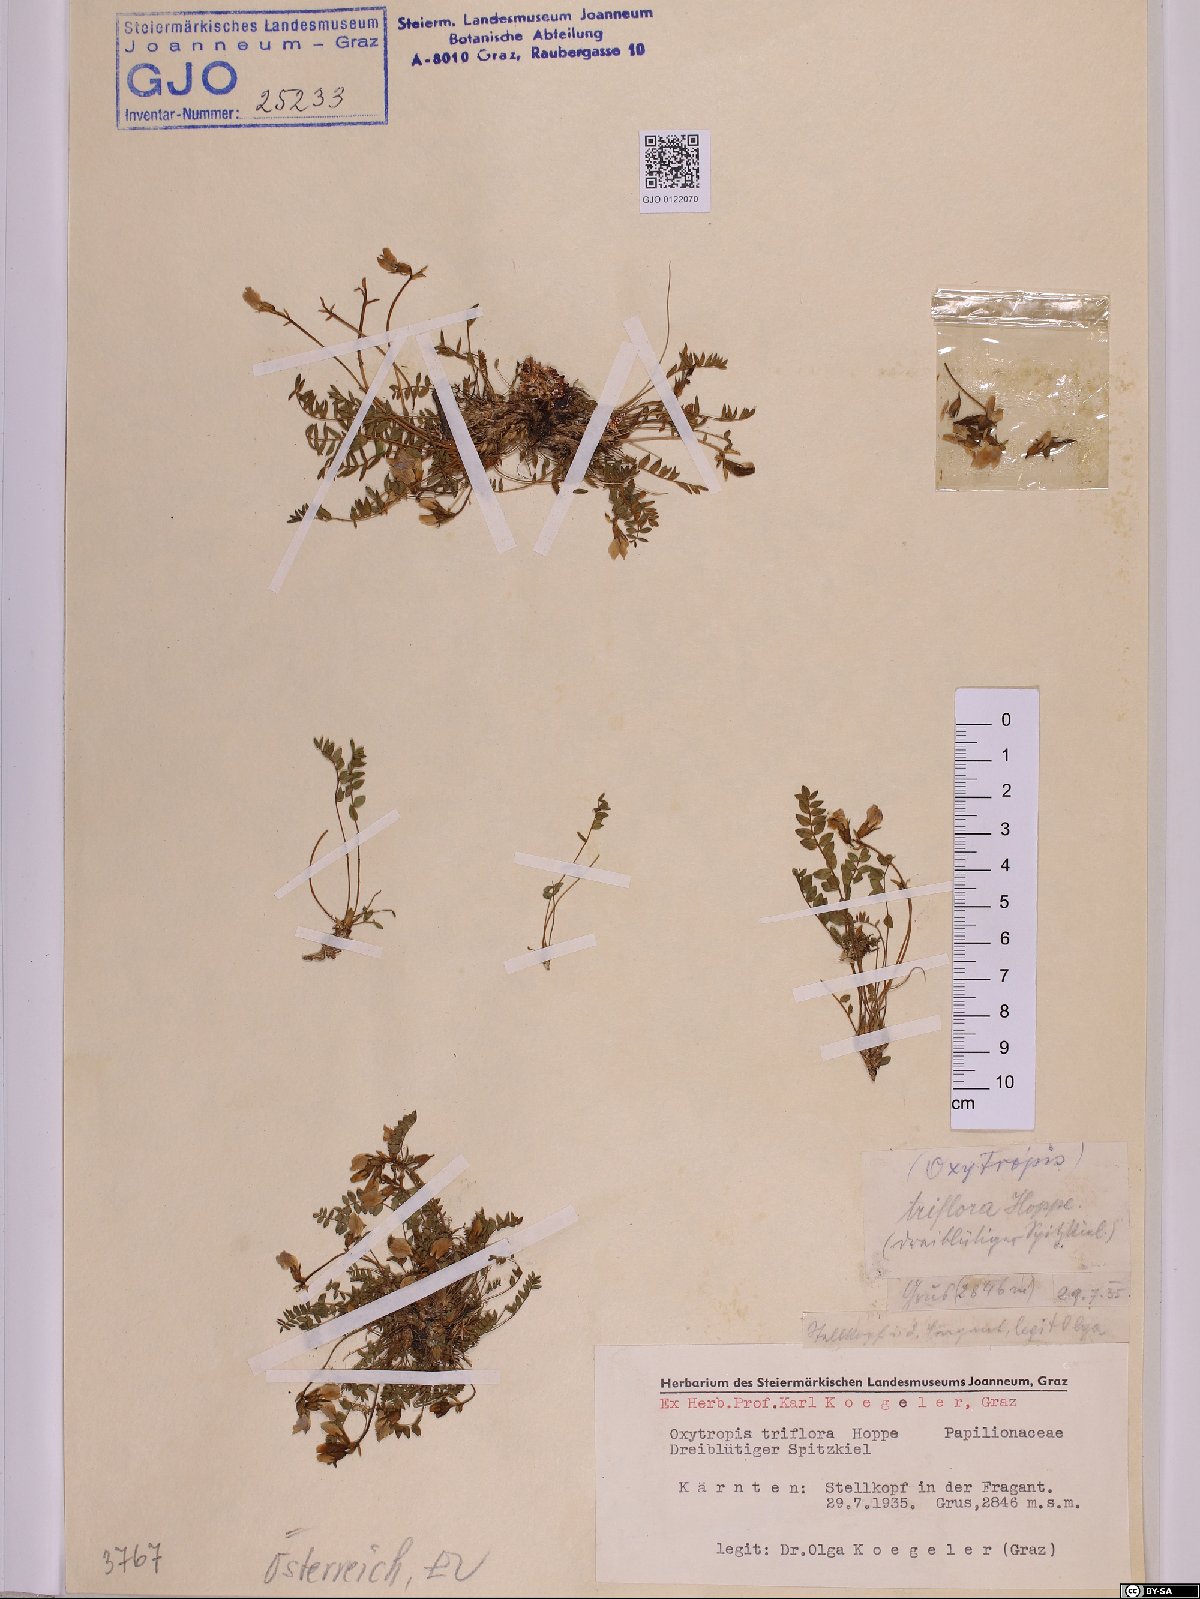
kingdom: Plantae
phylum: Tracheophyta
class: Magnoliopsida
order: Fabales
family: Fabaceae
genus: Oxytropis
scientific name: Oxytropis triflora
